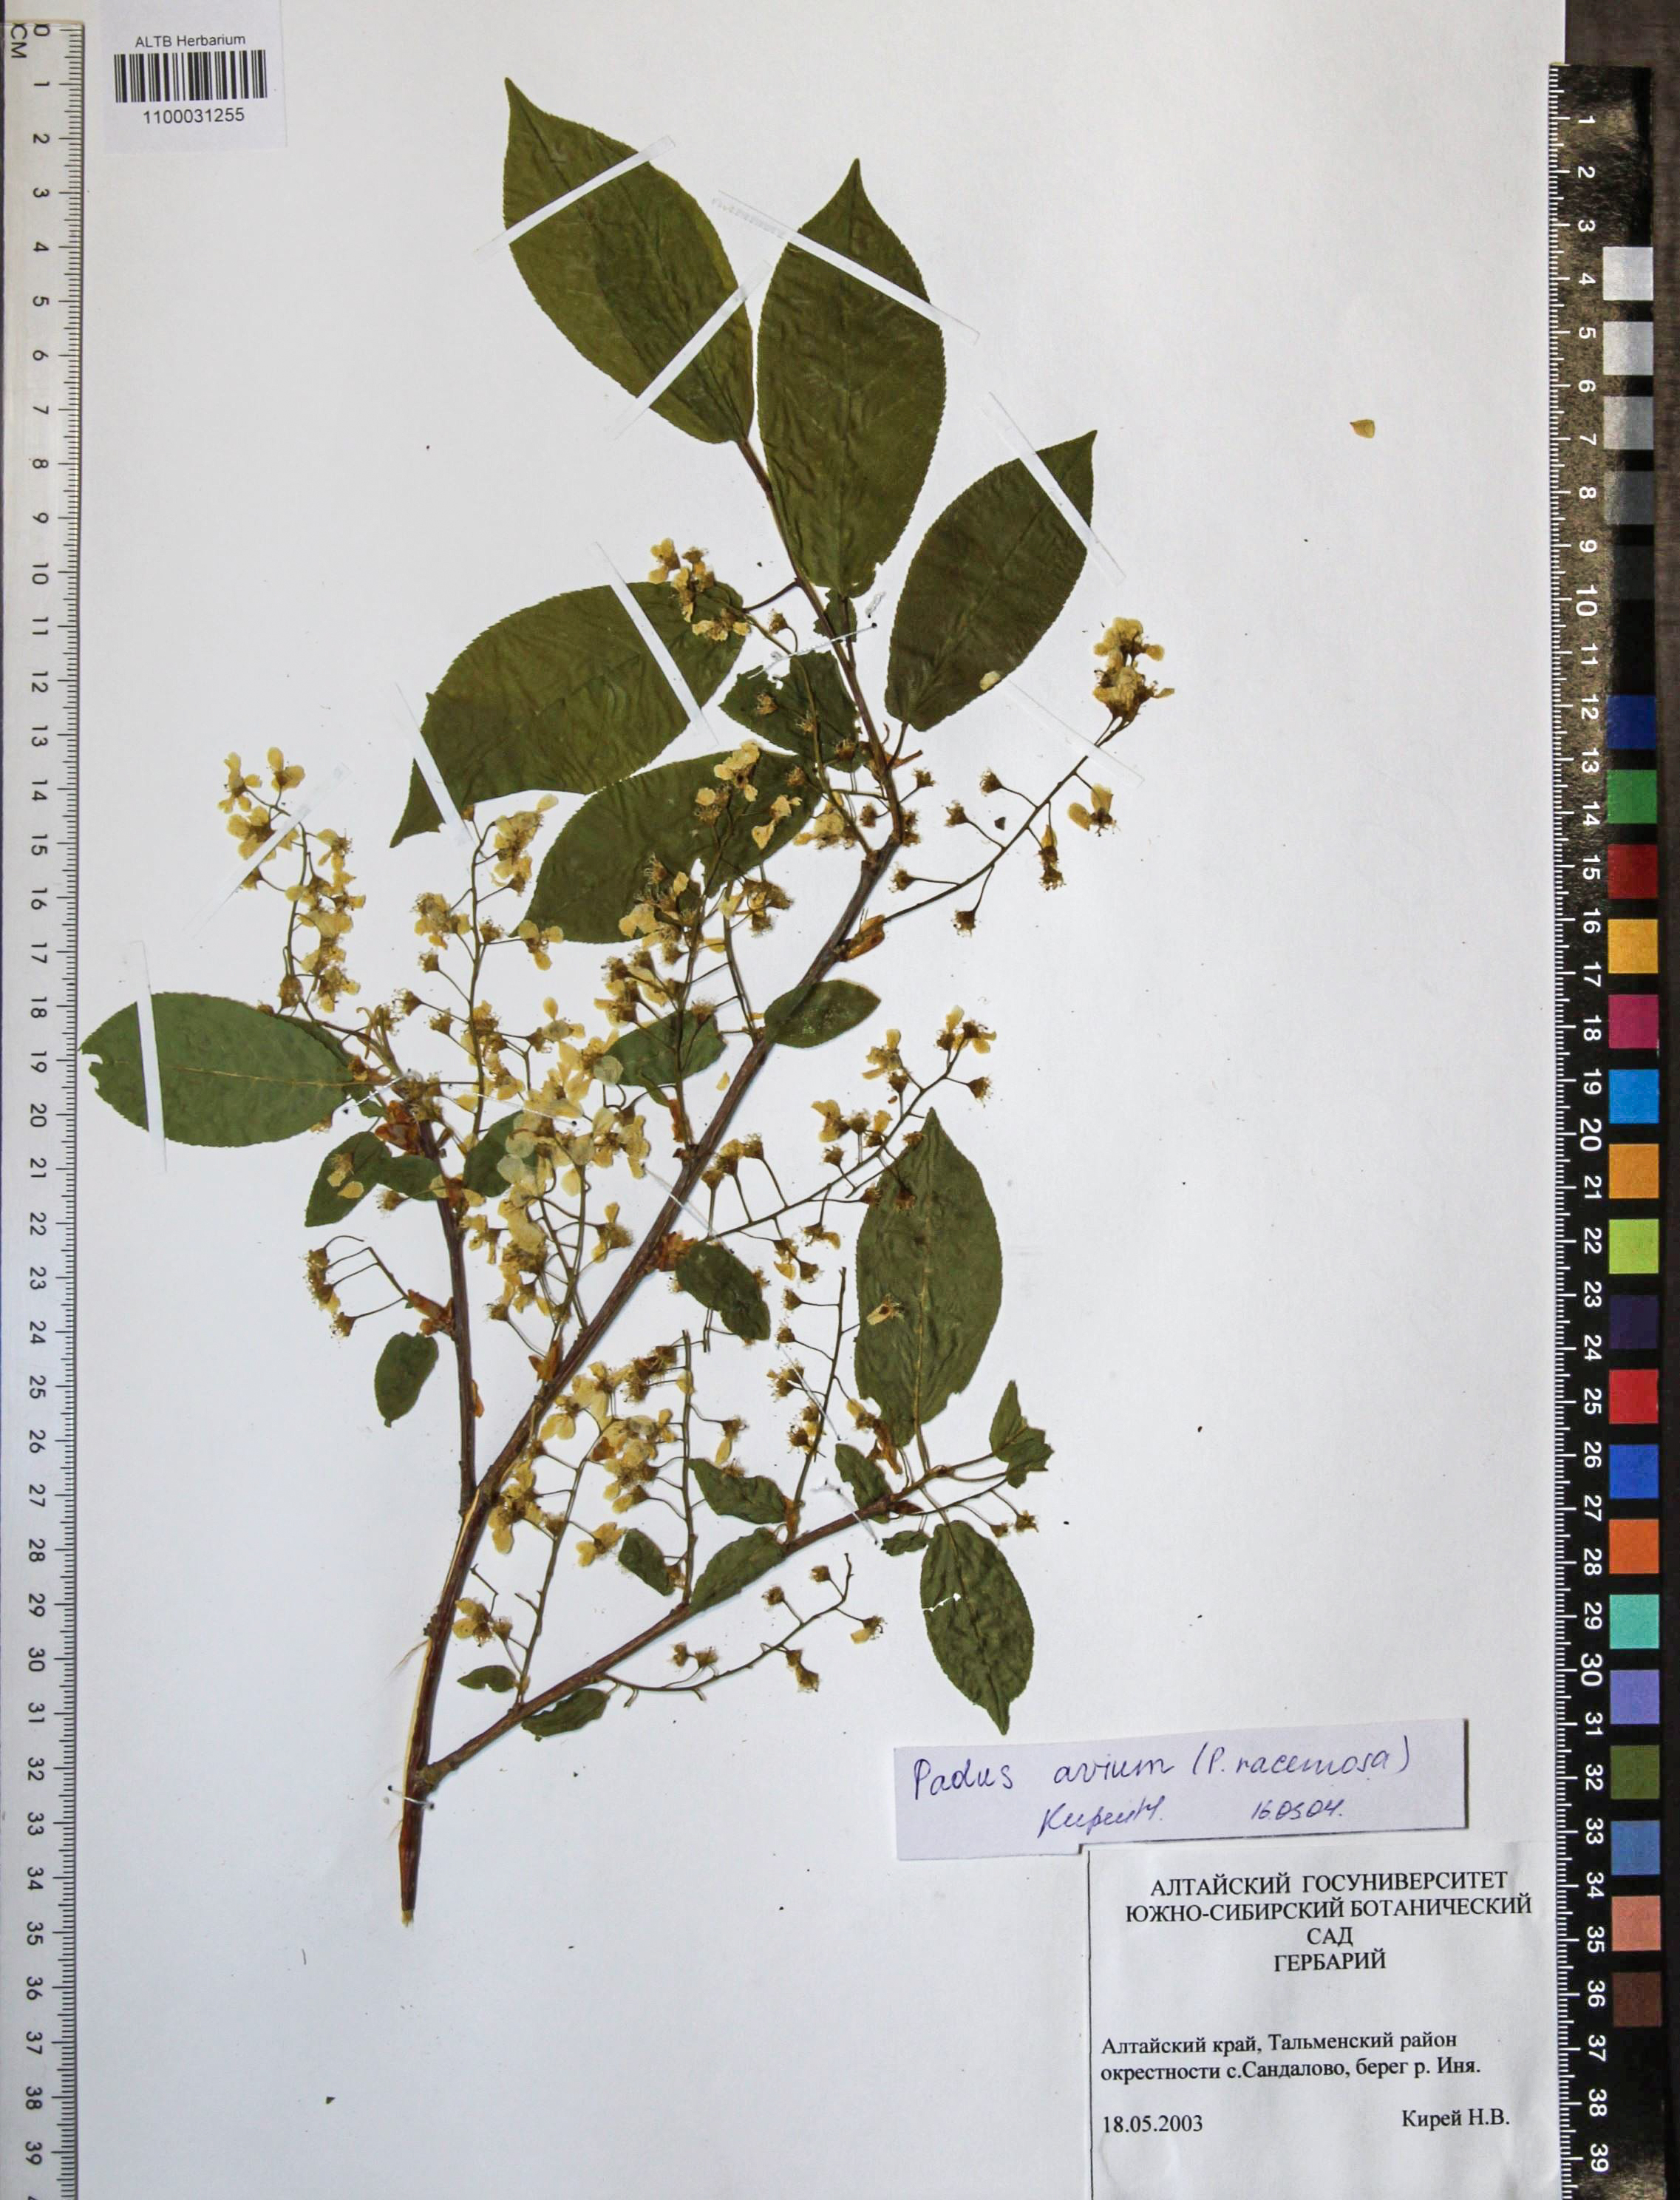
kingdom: Plantae
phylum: Tracheophyta
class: Magnoliopsida
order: Rosales
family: Rosaceae
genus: Prunus
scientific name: Prunus padus
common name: Bird cherry
